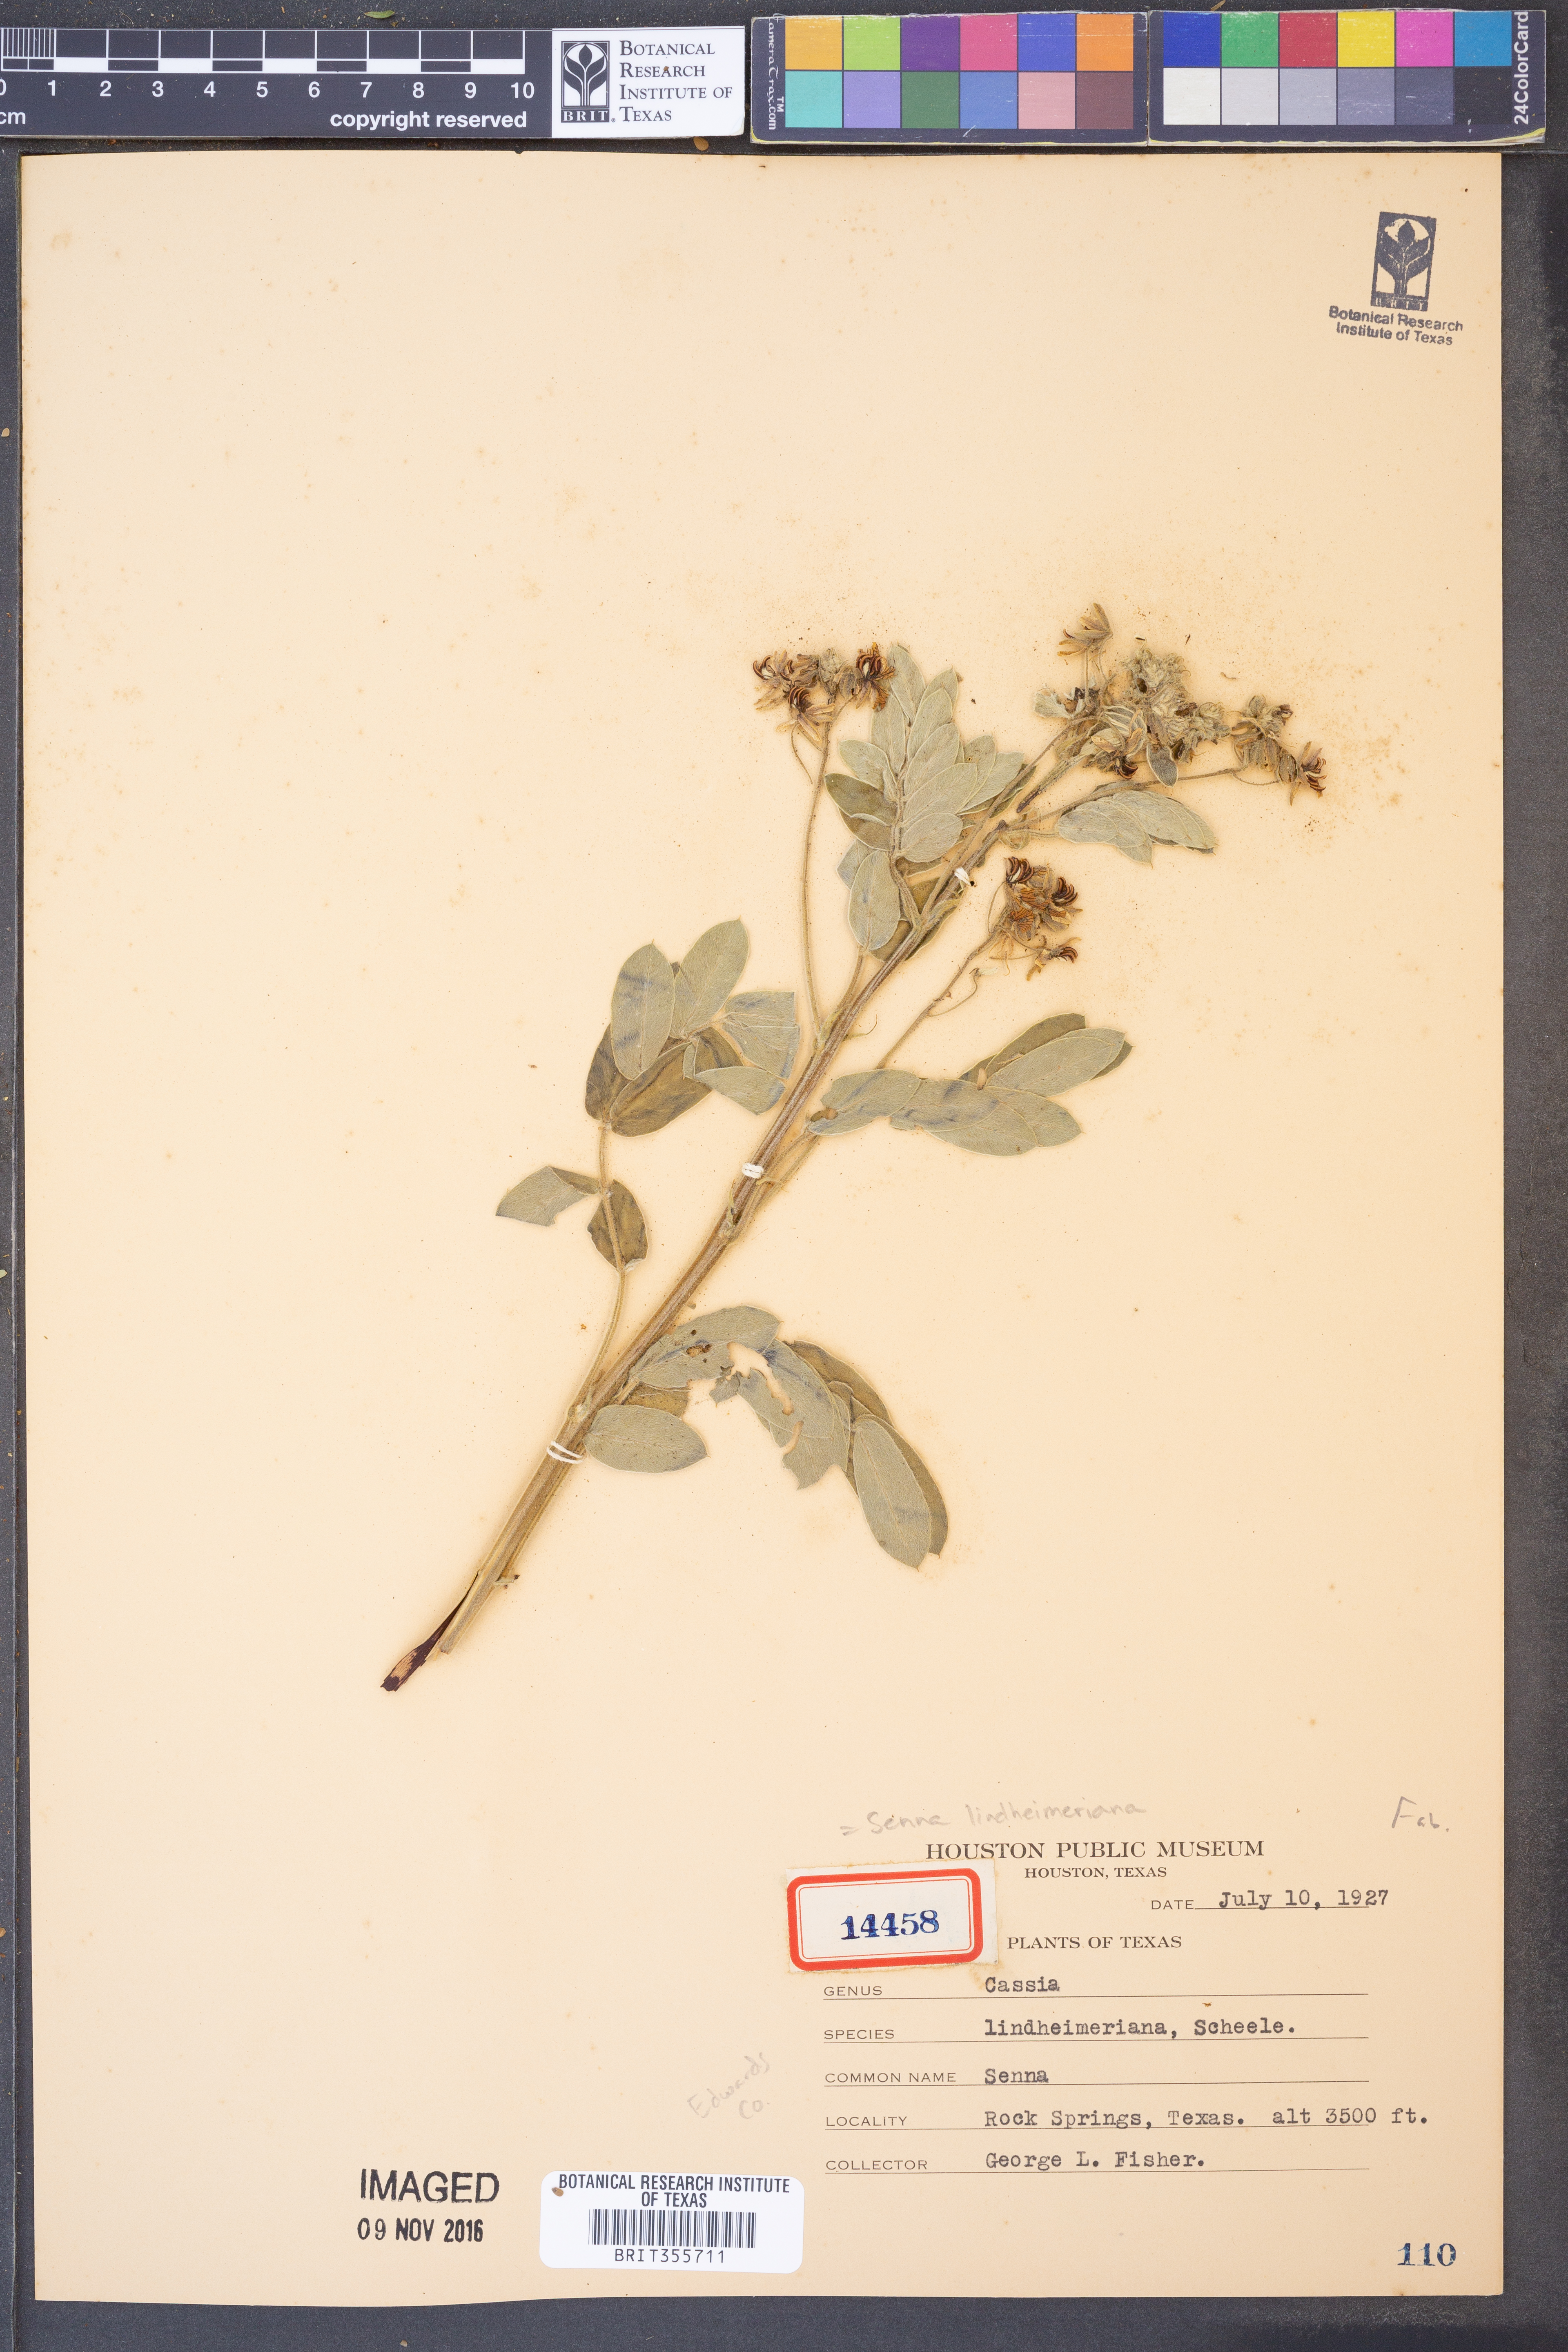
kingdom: Plantae
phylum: Tracheophyta
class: Magnoliopsida
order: Fabales
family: Fabaceae
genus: Senna
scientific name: Senna lindheimeriana
